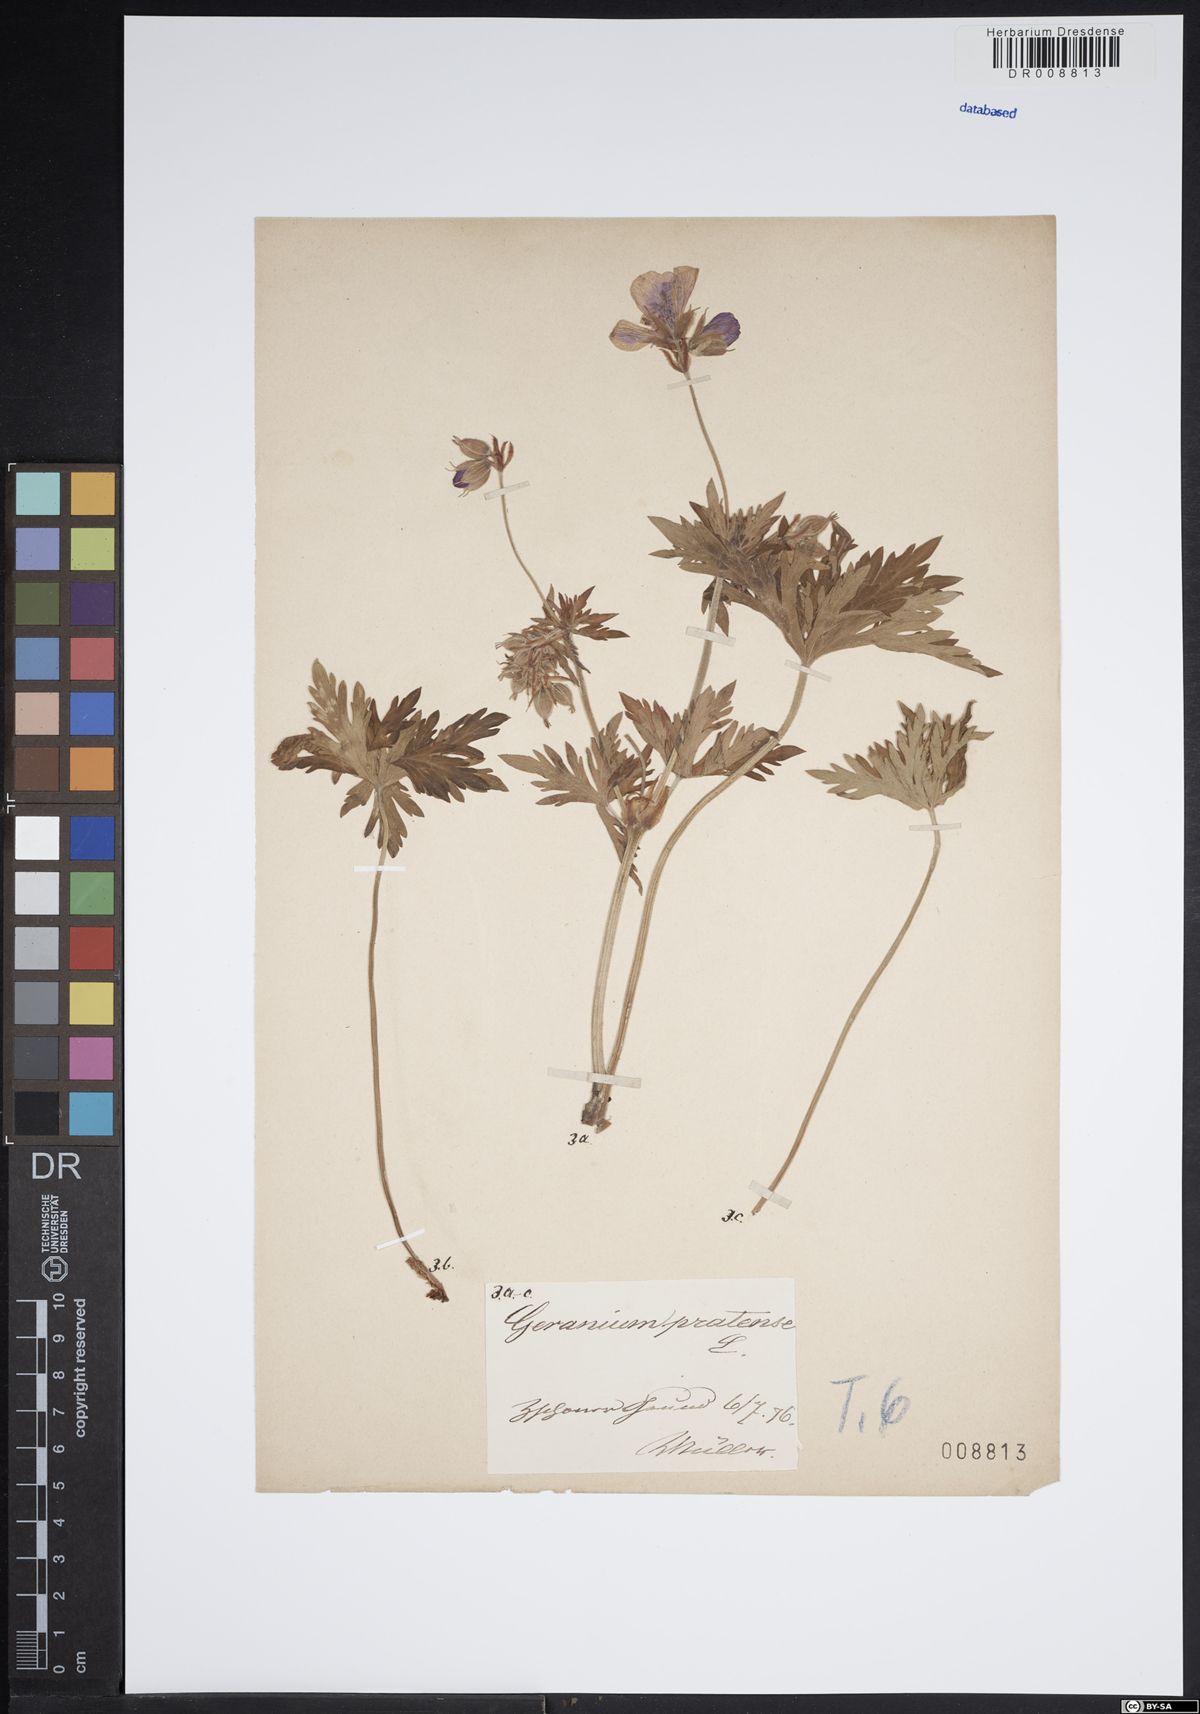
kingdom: Plantae
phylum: Tracheophyta
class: Magnoliopsida
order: Geraniales
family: Geraniaceae
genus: Geranium
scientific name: Geranium pratense
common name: Meadow crane's-bill
